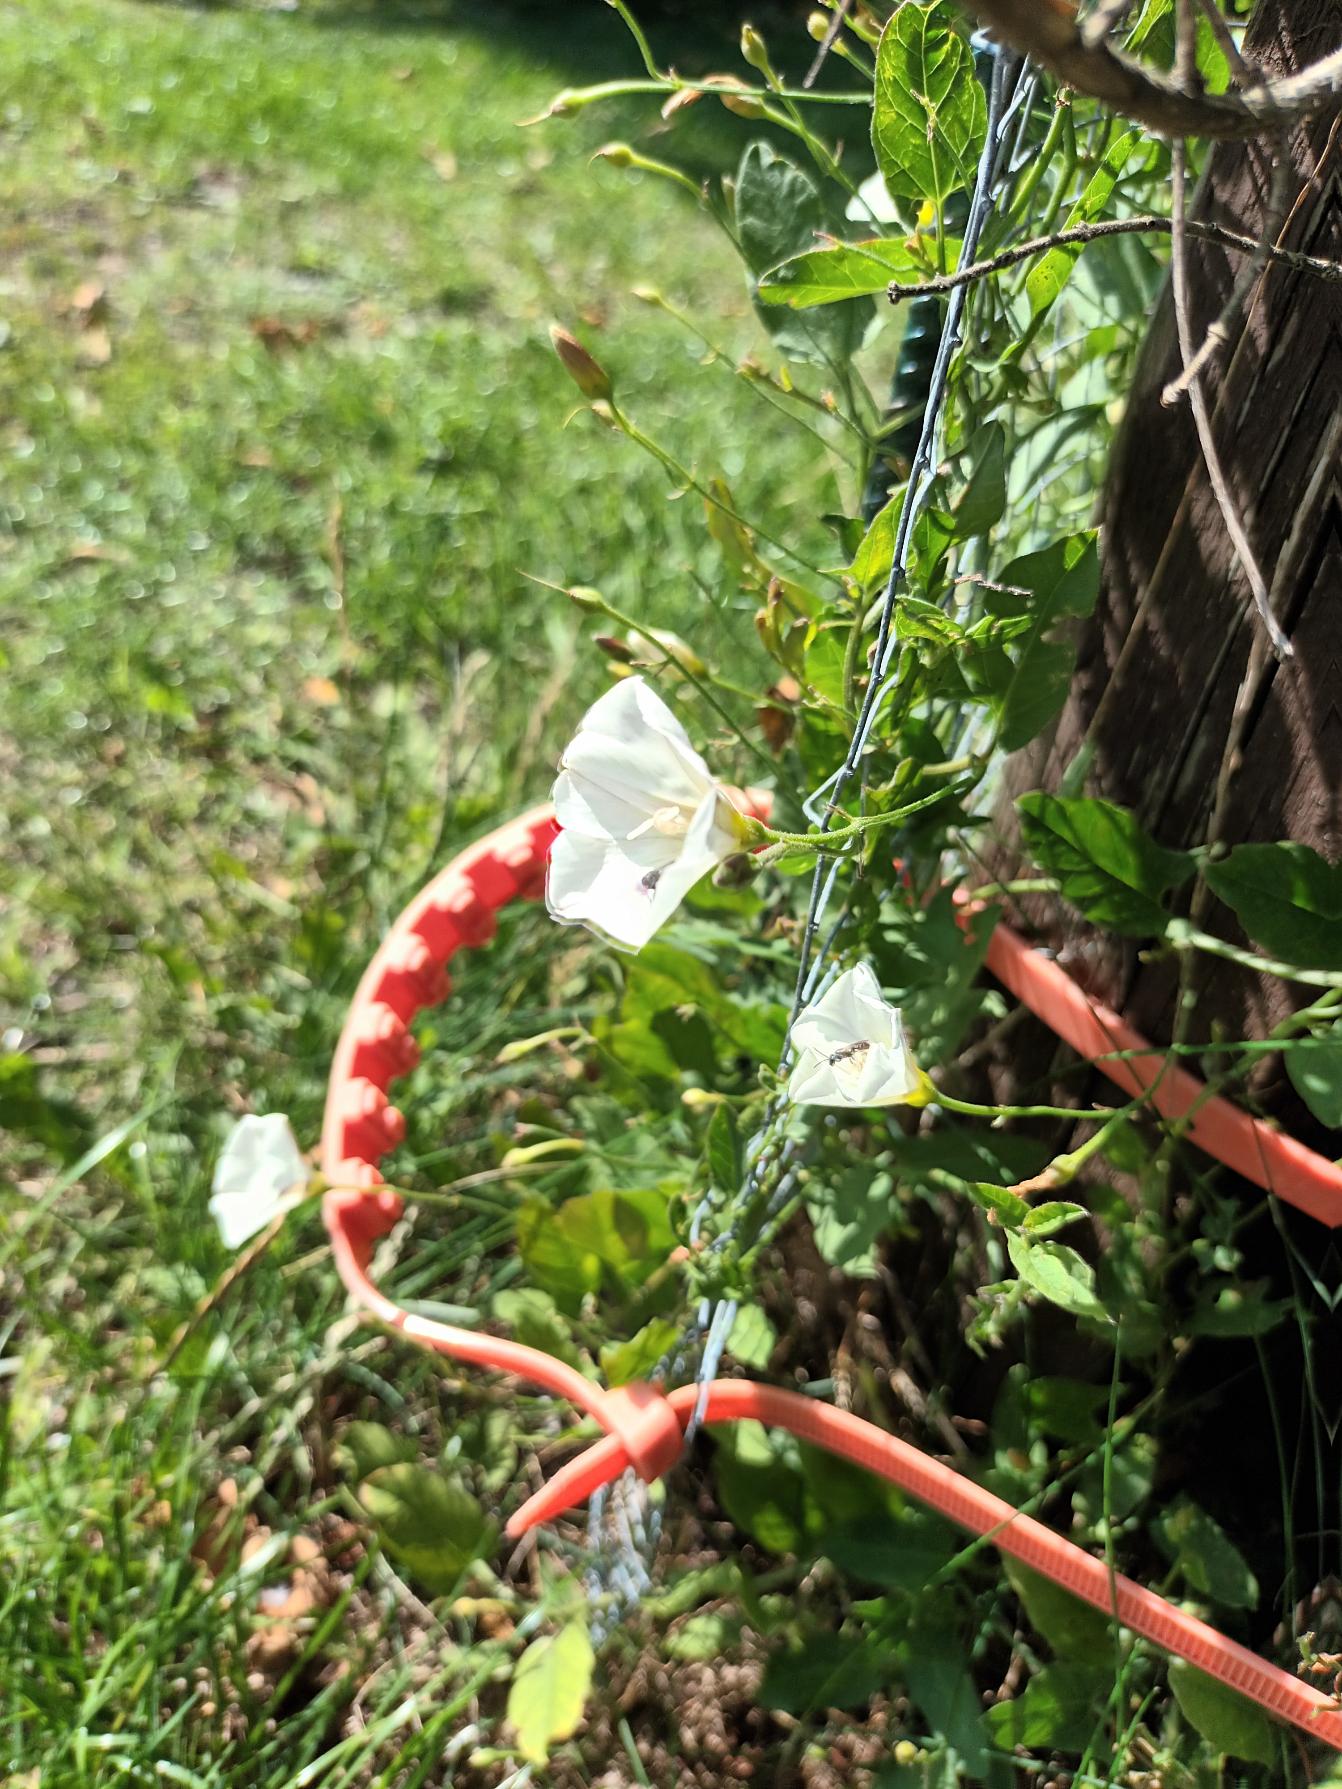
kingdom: Plantae
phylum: Tracheophyta
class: Magnoliopsida
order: Solanales
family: Convolvulaceae
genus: Convolvulus
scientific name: Convolvulus arvensis
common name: Ager-snerle
